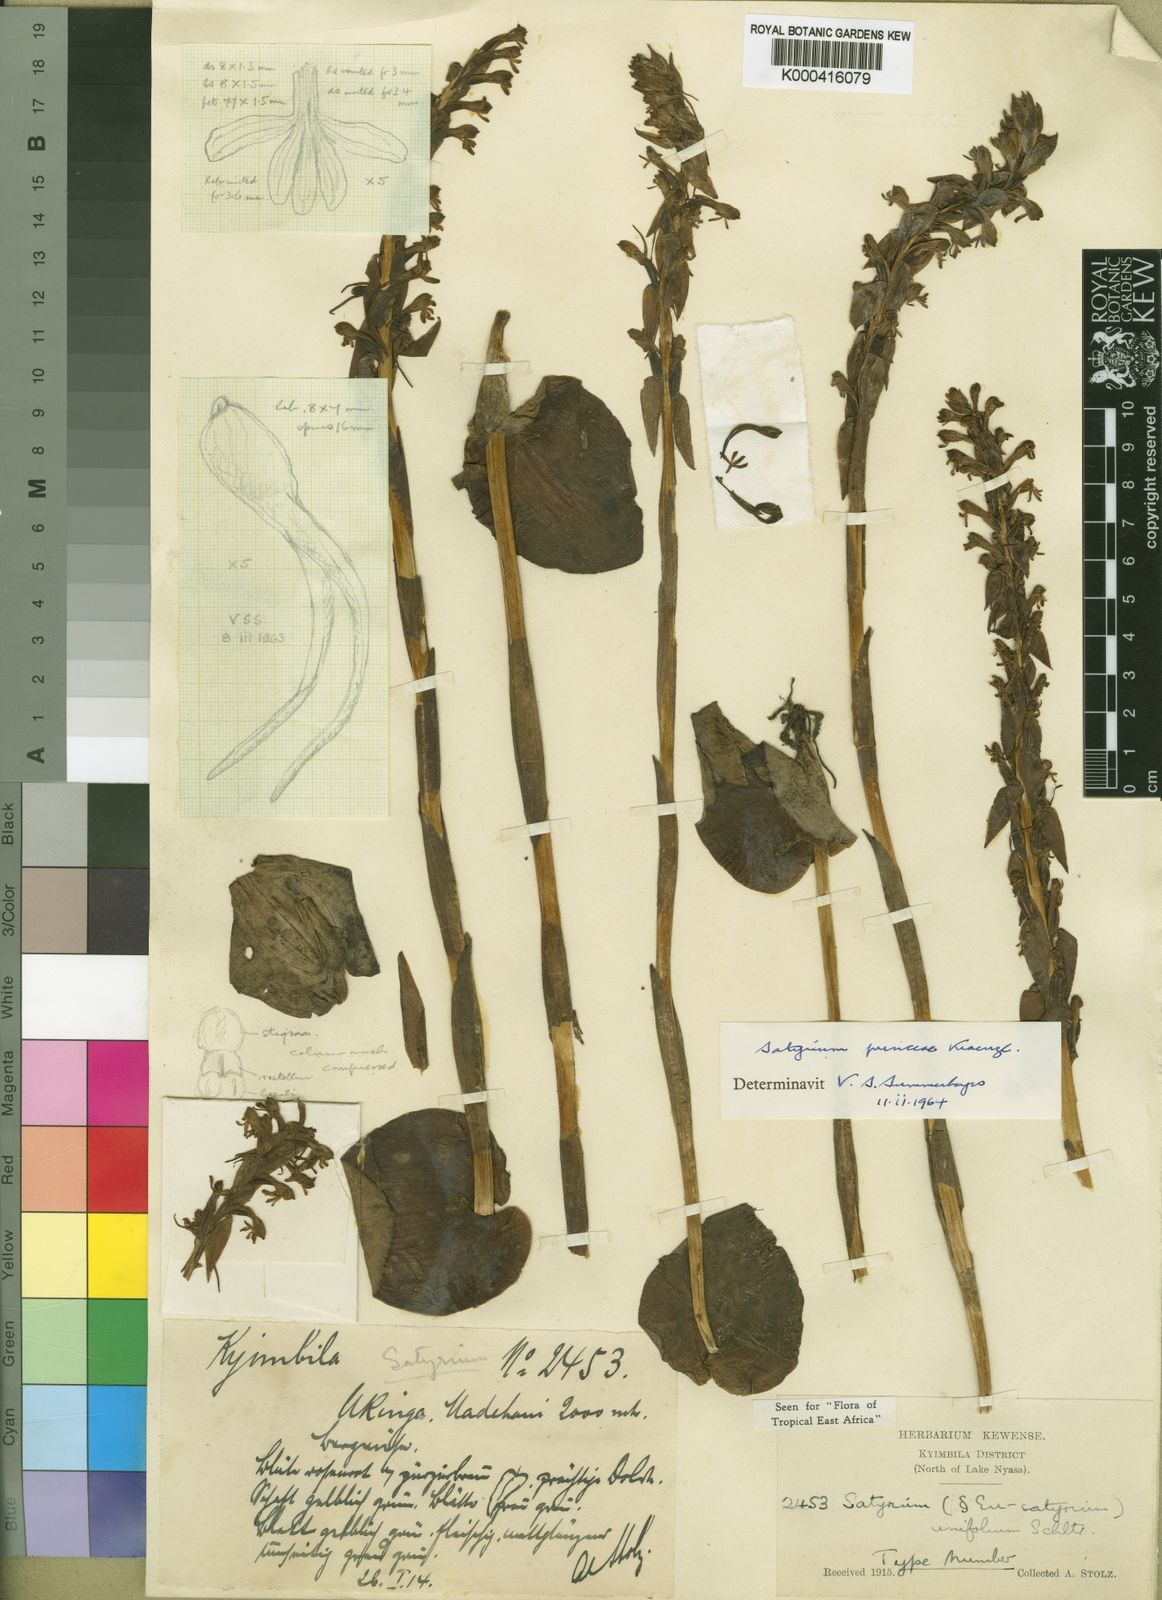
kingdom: Plantae
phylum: Tracheophyta
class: Liliopsida
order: Asparagales
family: Orchidaceae
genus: Satyrium
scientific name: Satyrium princeae
